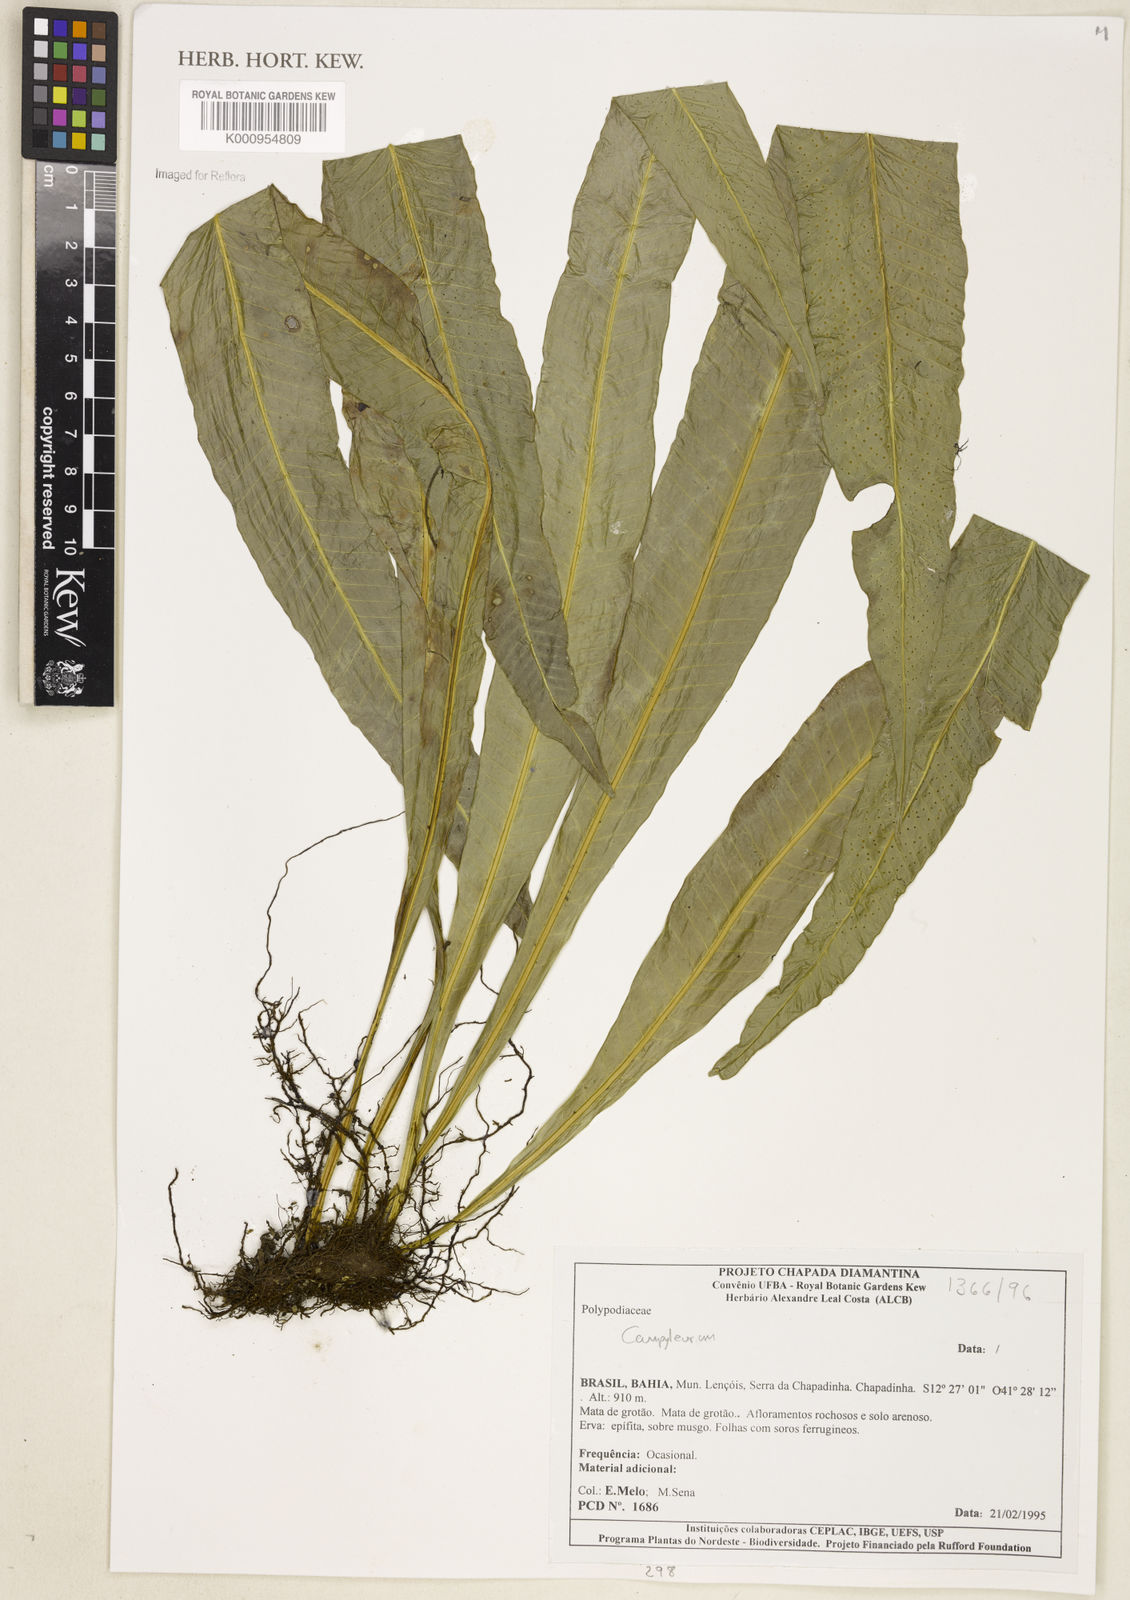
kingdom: Plantae
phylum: Tracheophyta
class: Polypodiopsida
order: Polypodiales
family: Polypodiaceae
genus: Campyloneurum
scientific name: Campyloneurum
